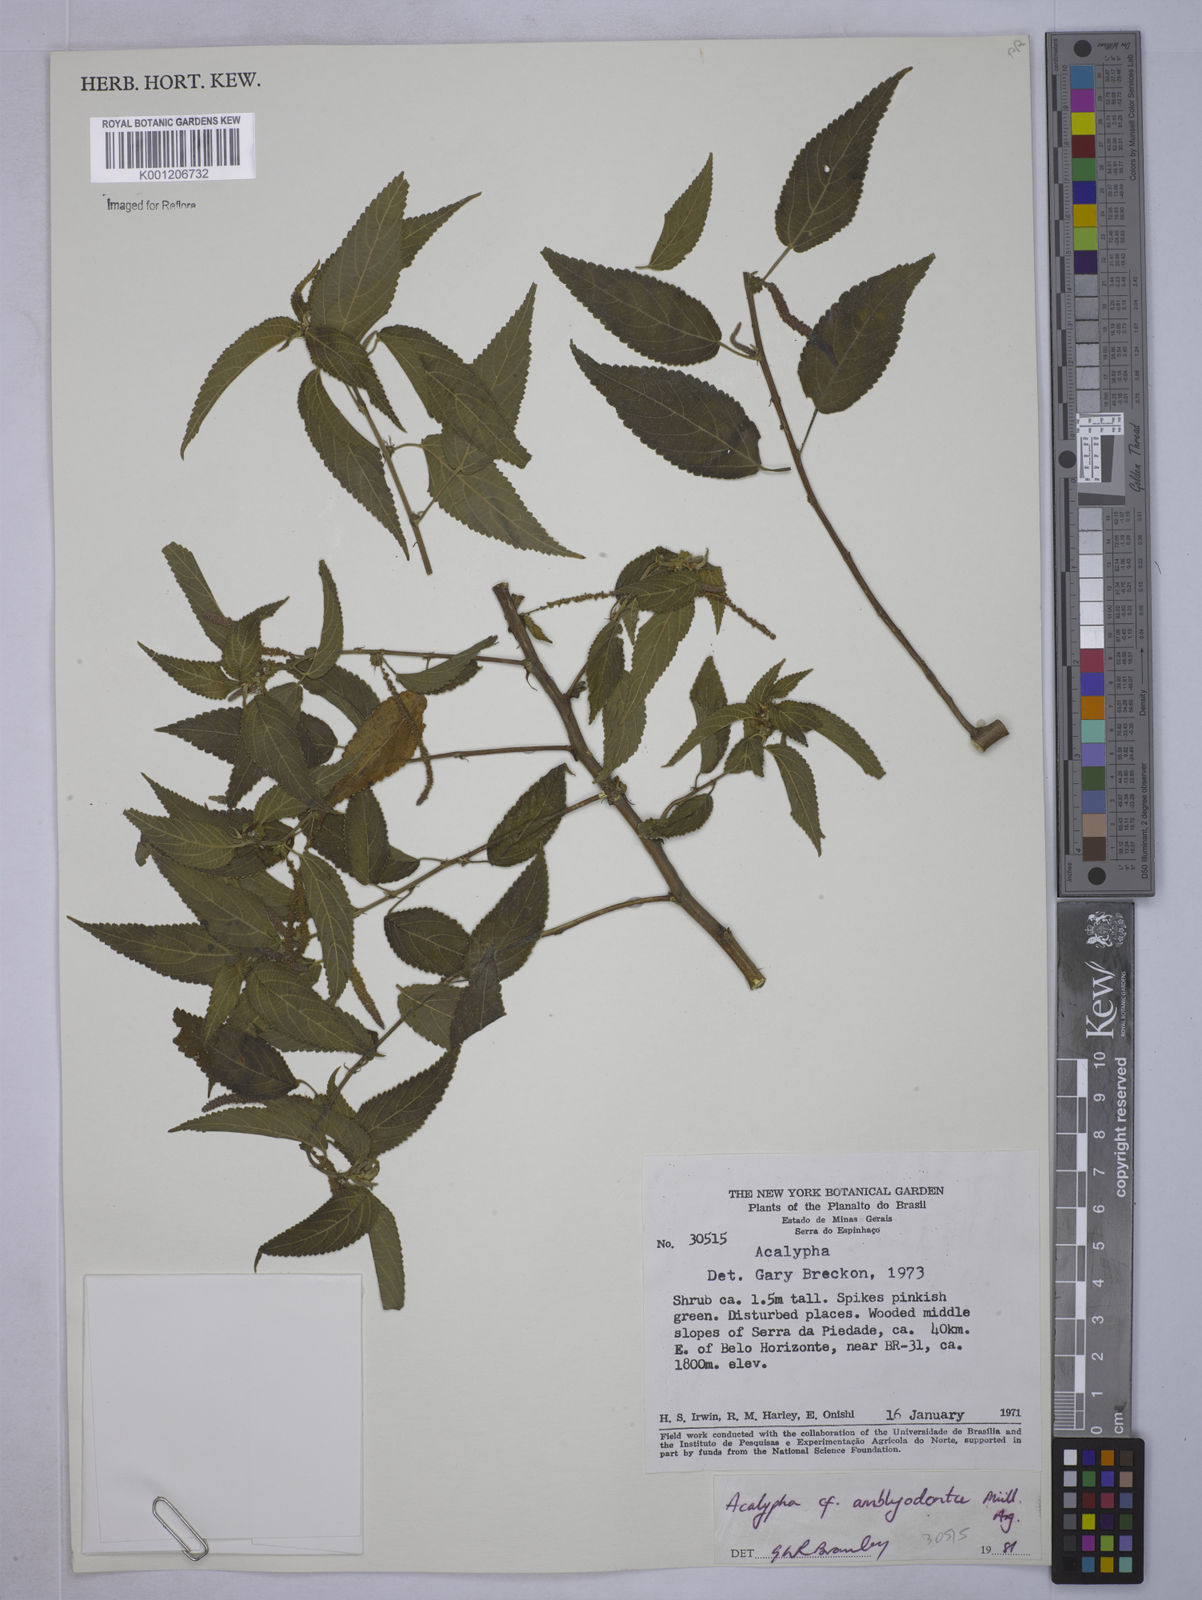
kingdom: Plantae
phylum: Tracheophyta
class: Magnoliopsida
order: Malpighiales
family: Euphorbiaceae
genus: Acalypha
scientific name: Acalypha
